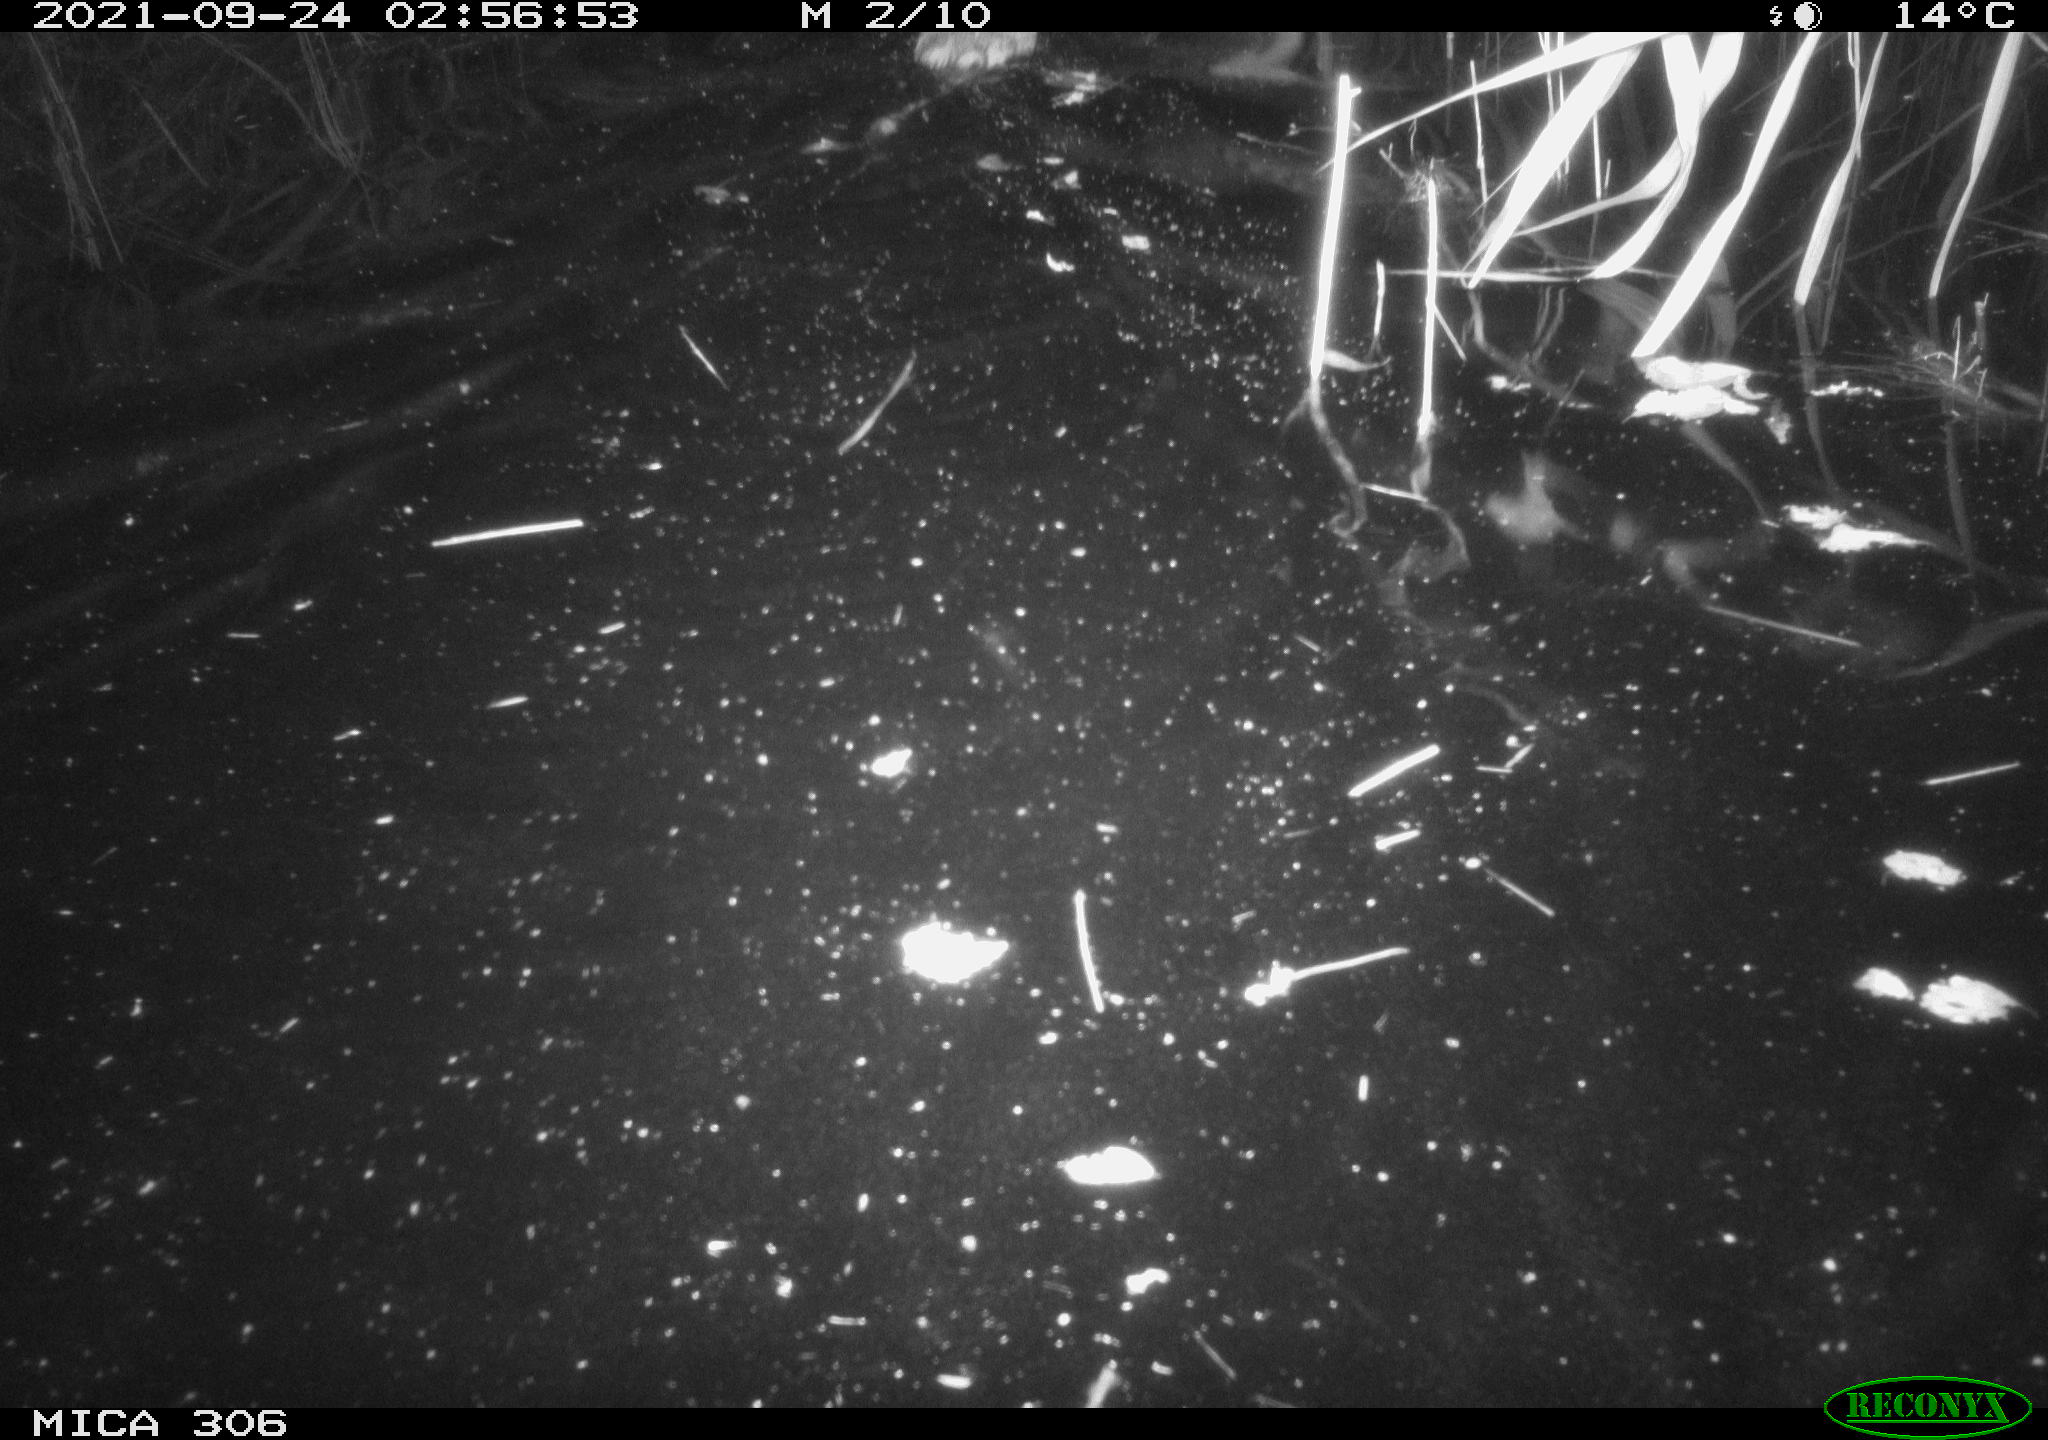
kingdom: Animalia
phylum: Chordata
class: Mammalia
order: Rodentia
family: Cricetidae
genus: Ondatra
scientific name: Ondatra zibethicus
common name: Muskrat
